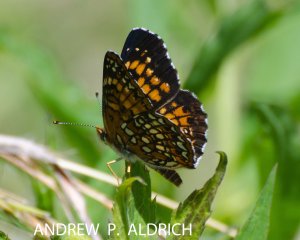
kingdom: Animalia
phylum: Arthropoda
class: Insecta
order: Lepidoptera
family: Nymphalidae
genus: Chlosyne
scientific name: Chlosyne harrisii
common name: Harris's Checkerspot
